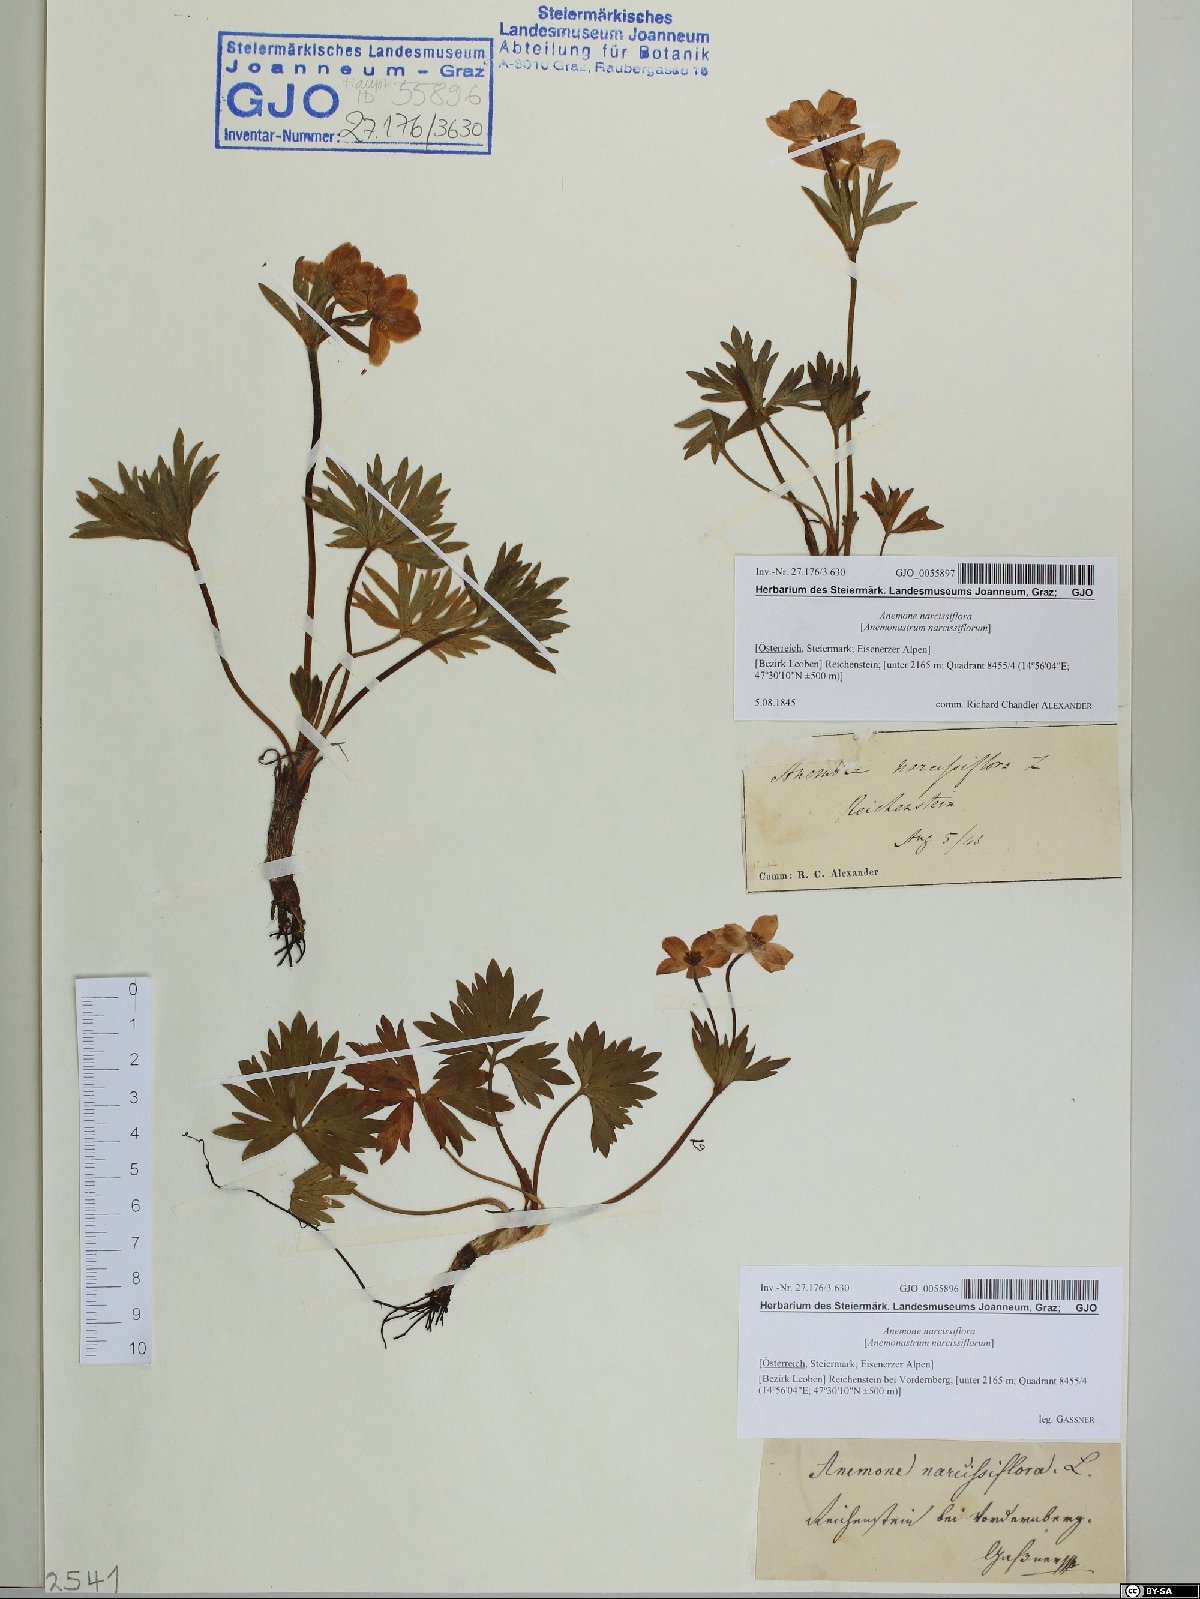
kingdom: Plantae
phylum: Tracheophyta
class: Magnoliopsida
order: Ranunculales
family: Ranunculaceae
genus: Anemonastrum
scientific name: Anemonastrum narcissiflorum
